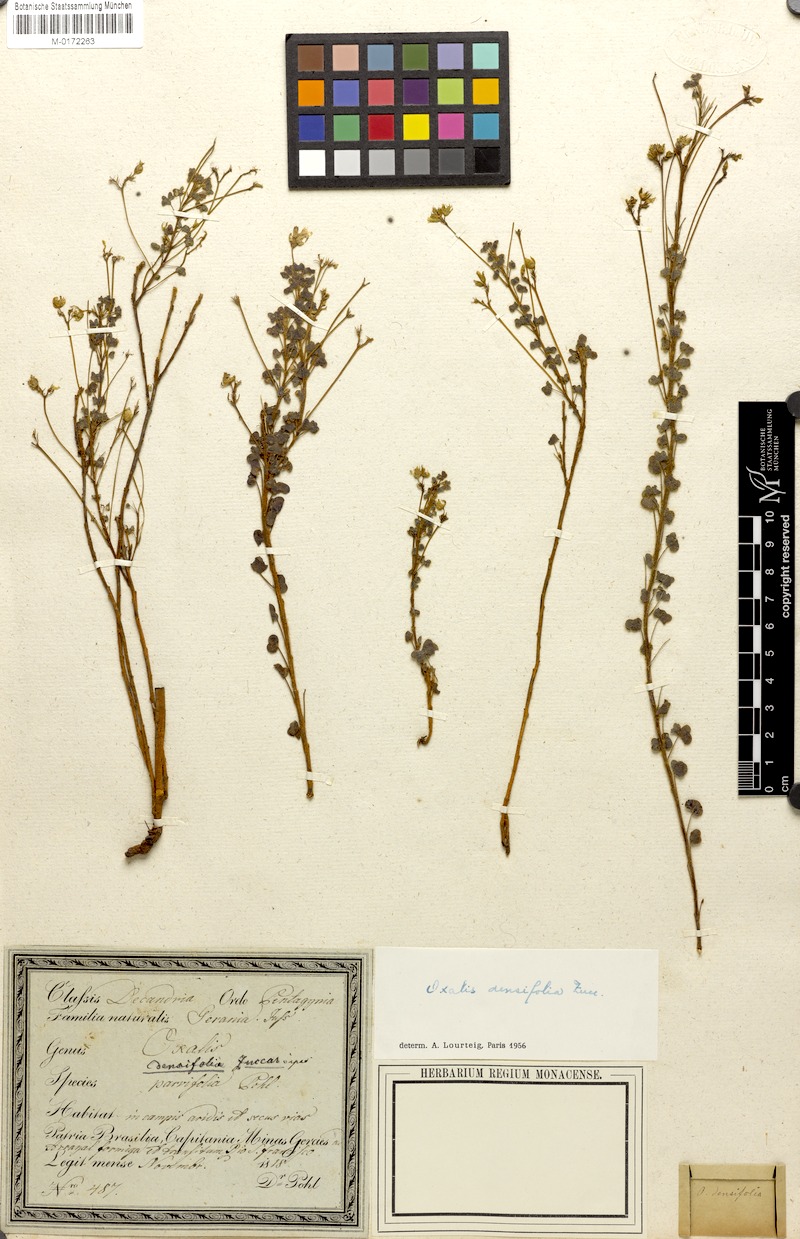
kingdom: Plantae
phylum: Tracheophyta
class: Magnoliopsida
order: Oxalidales
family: Oxalidaceae
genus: Oxalis
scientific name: Oxalis densifolia
